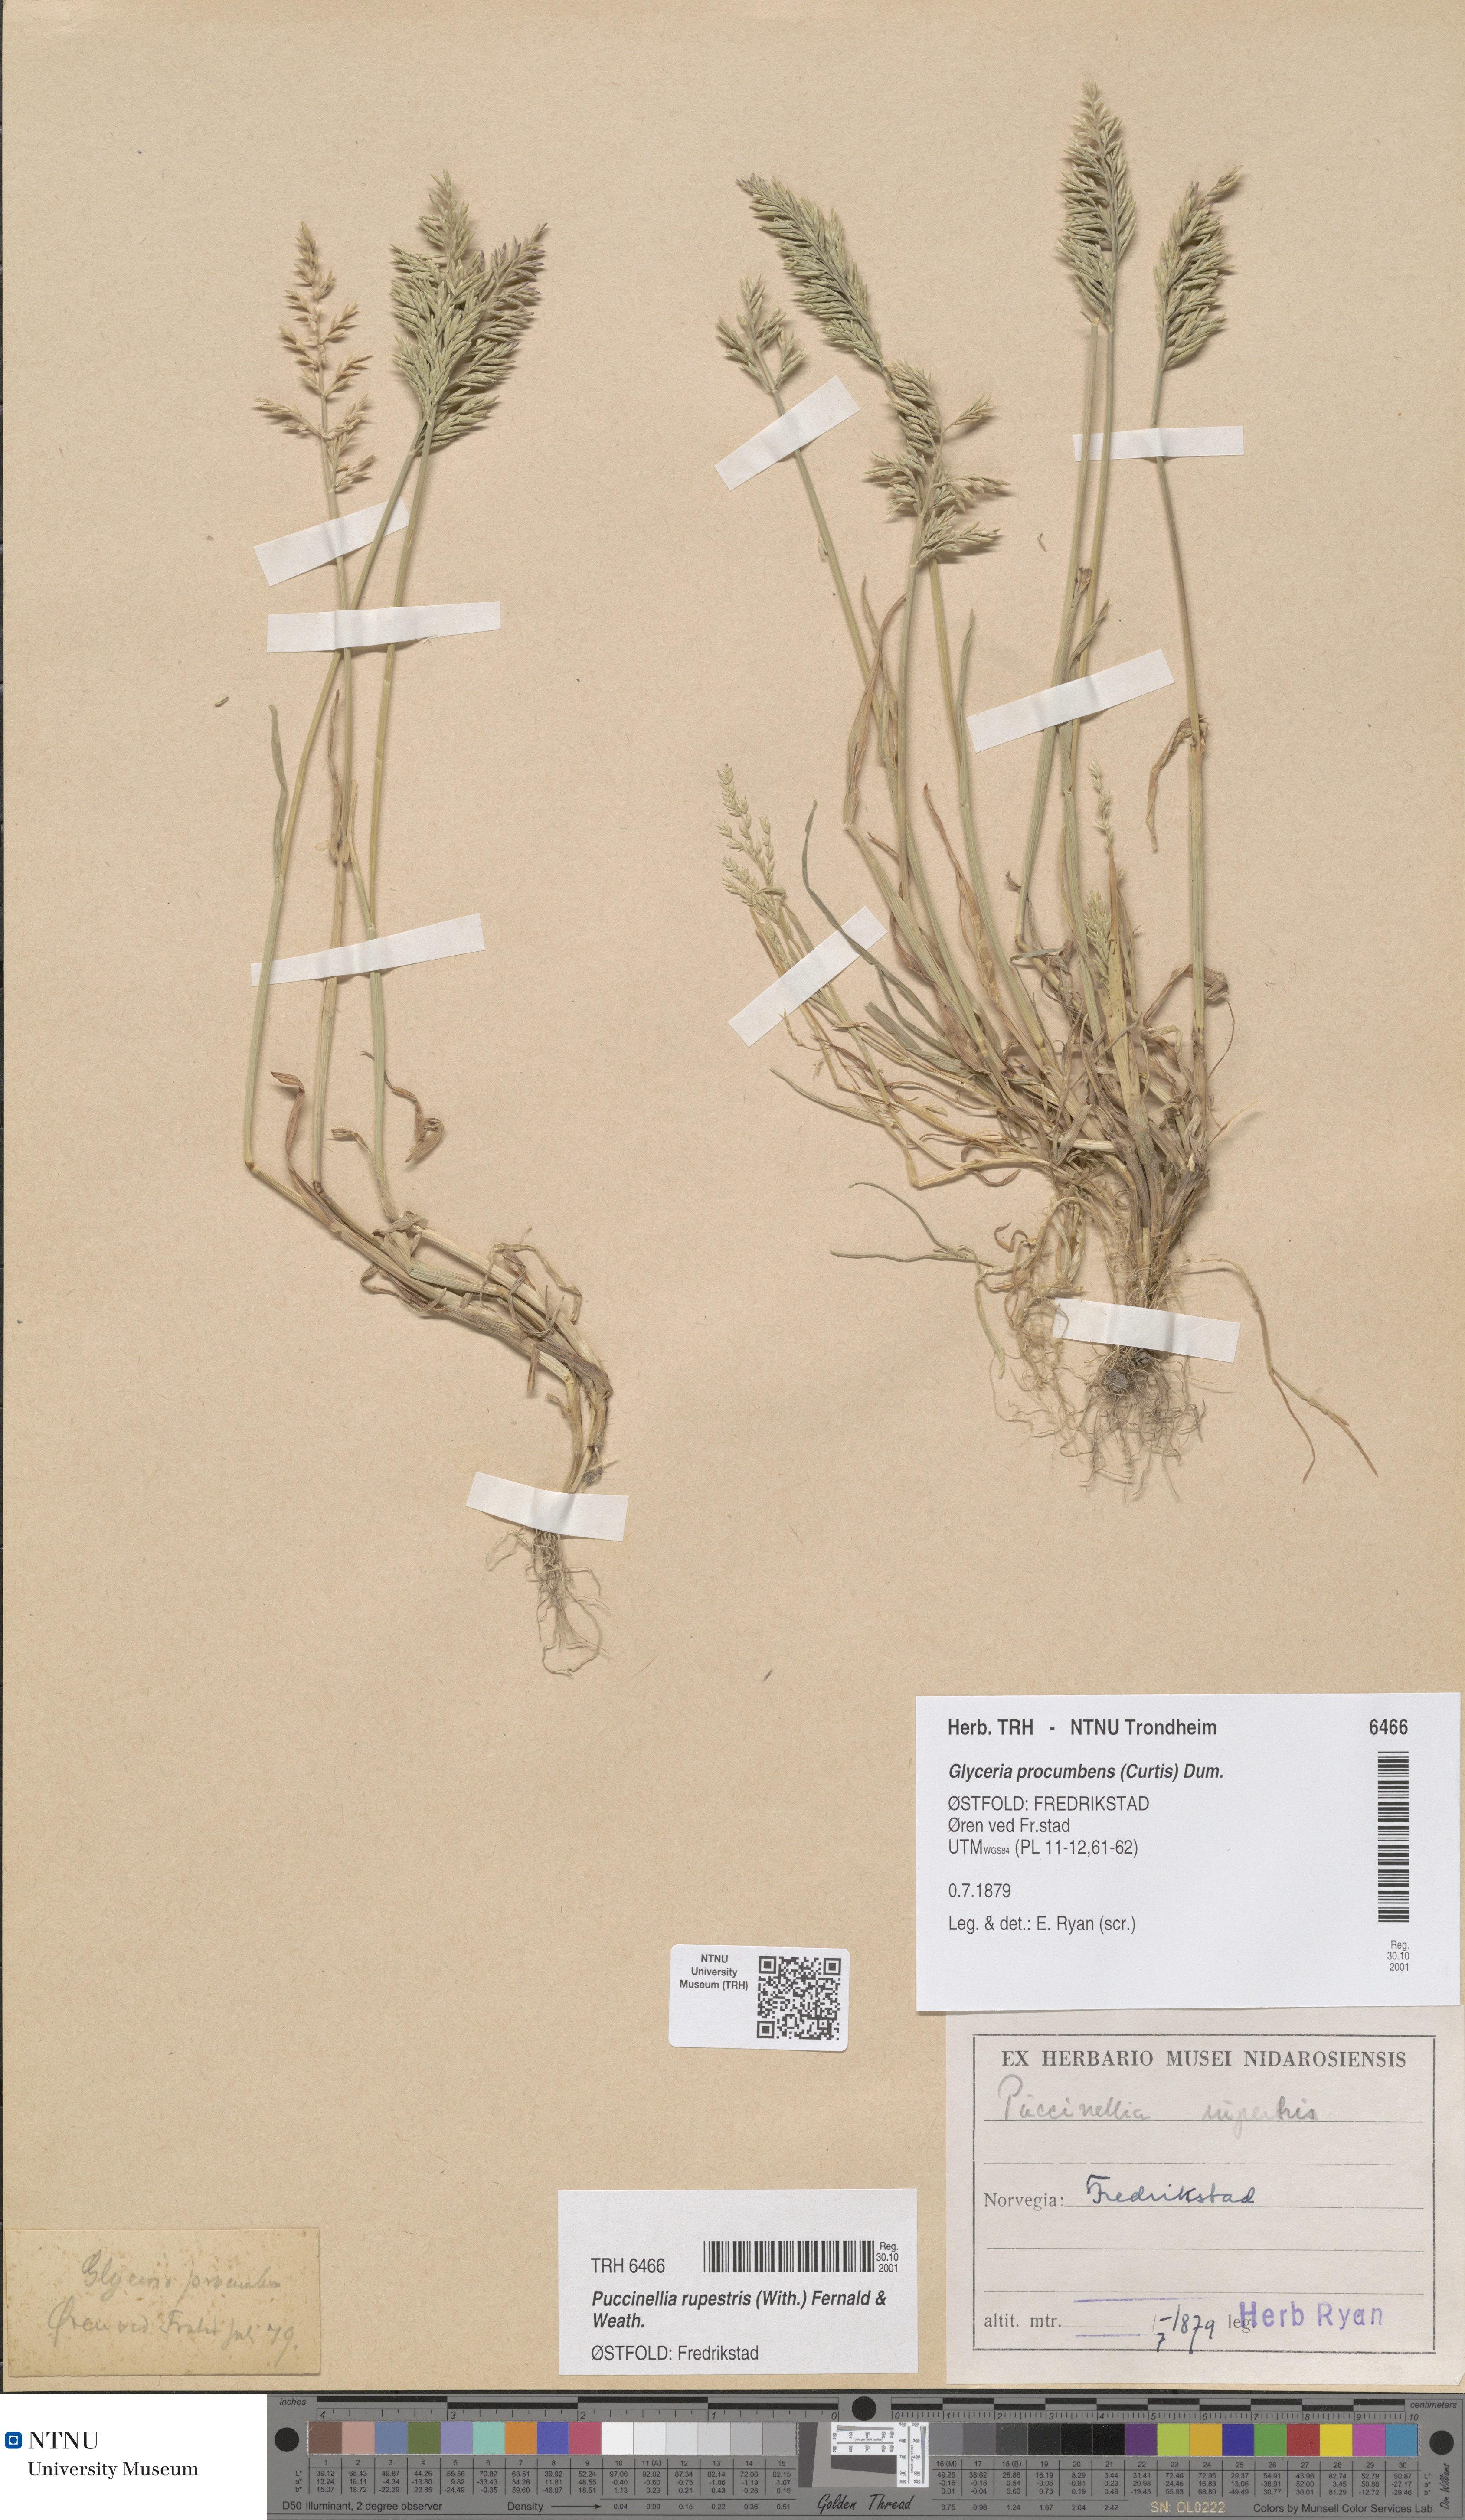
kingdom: Plantae
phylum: Tracheophyta
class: Liliopsida
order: Poales
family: Poaceae
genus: Puccinellia
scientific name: Puccinellia rupestris
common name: Stiff saltmarsh-grass
